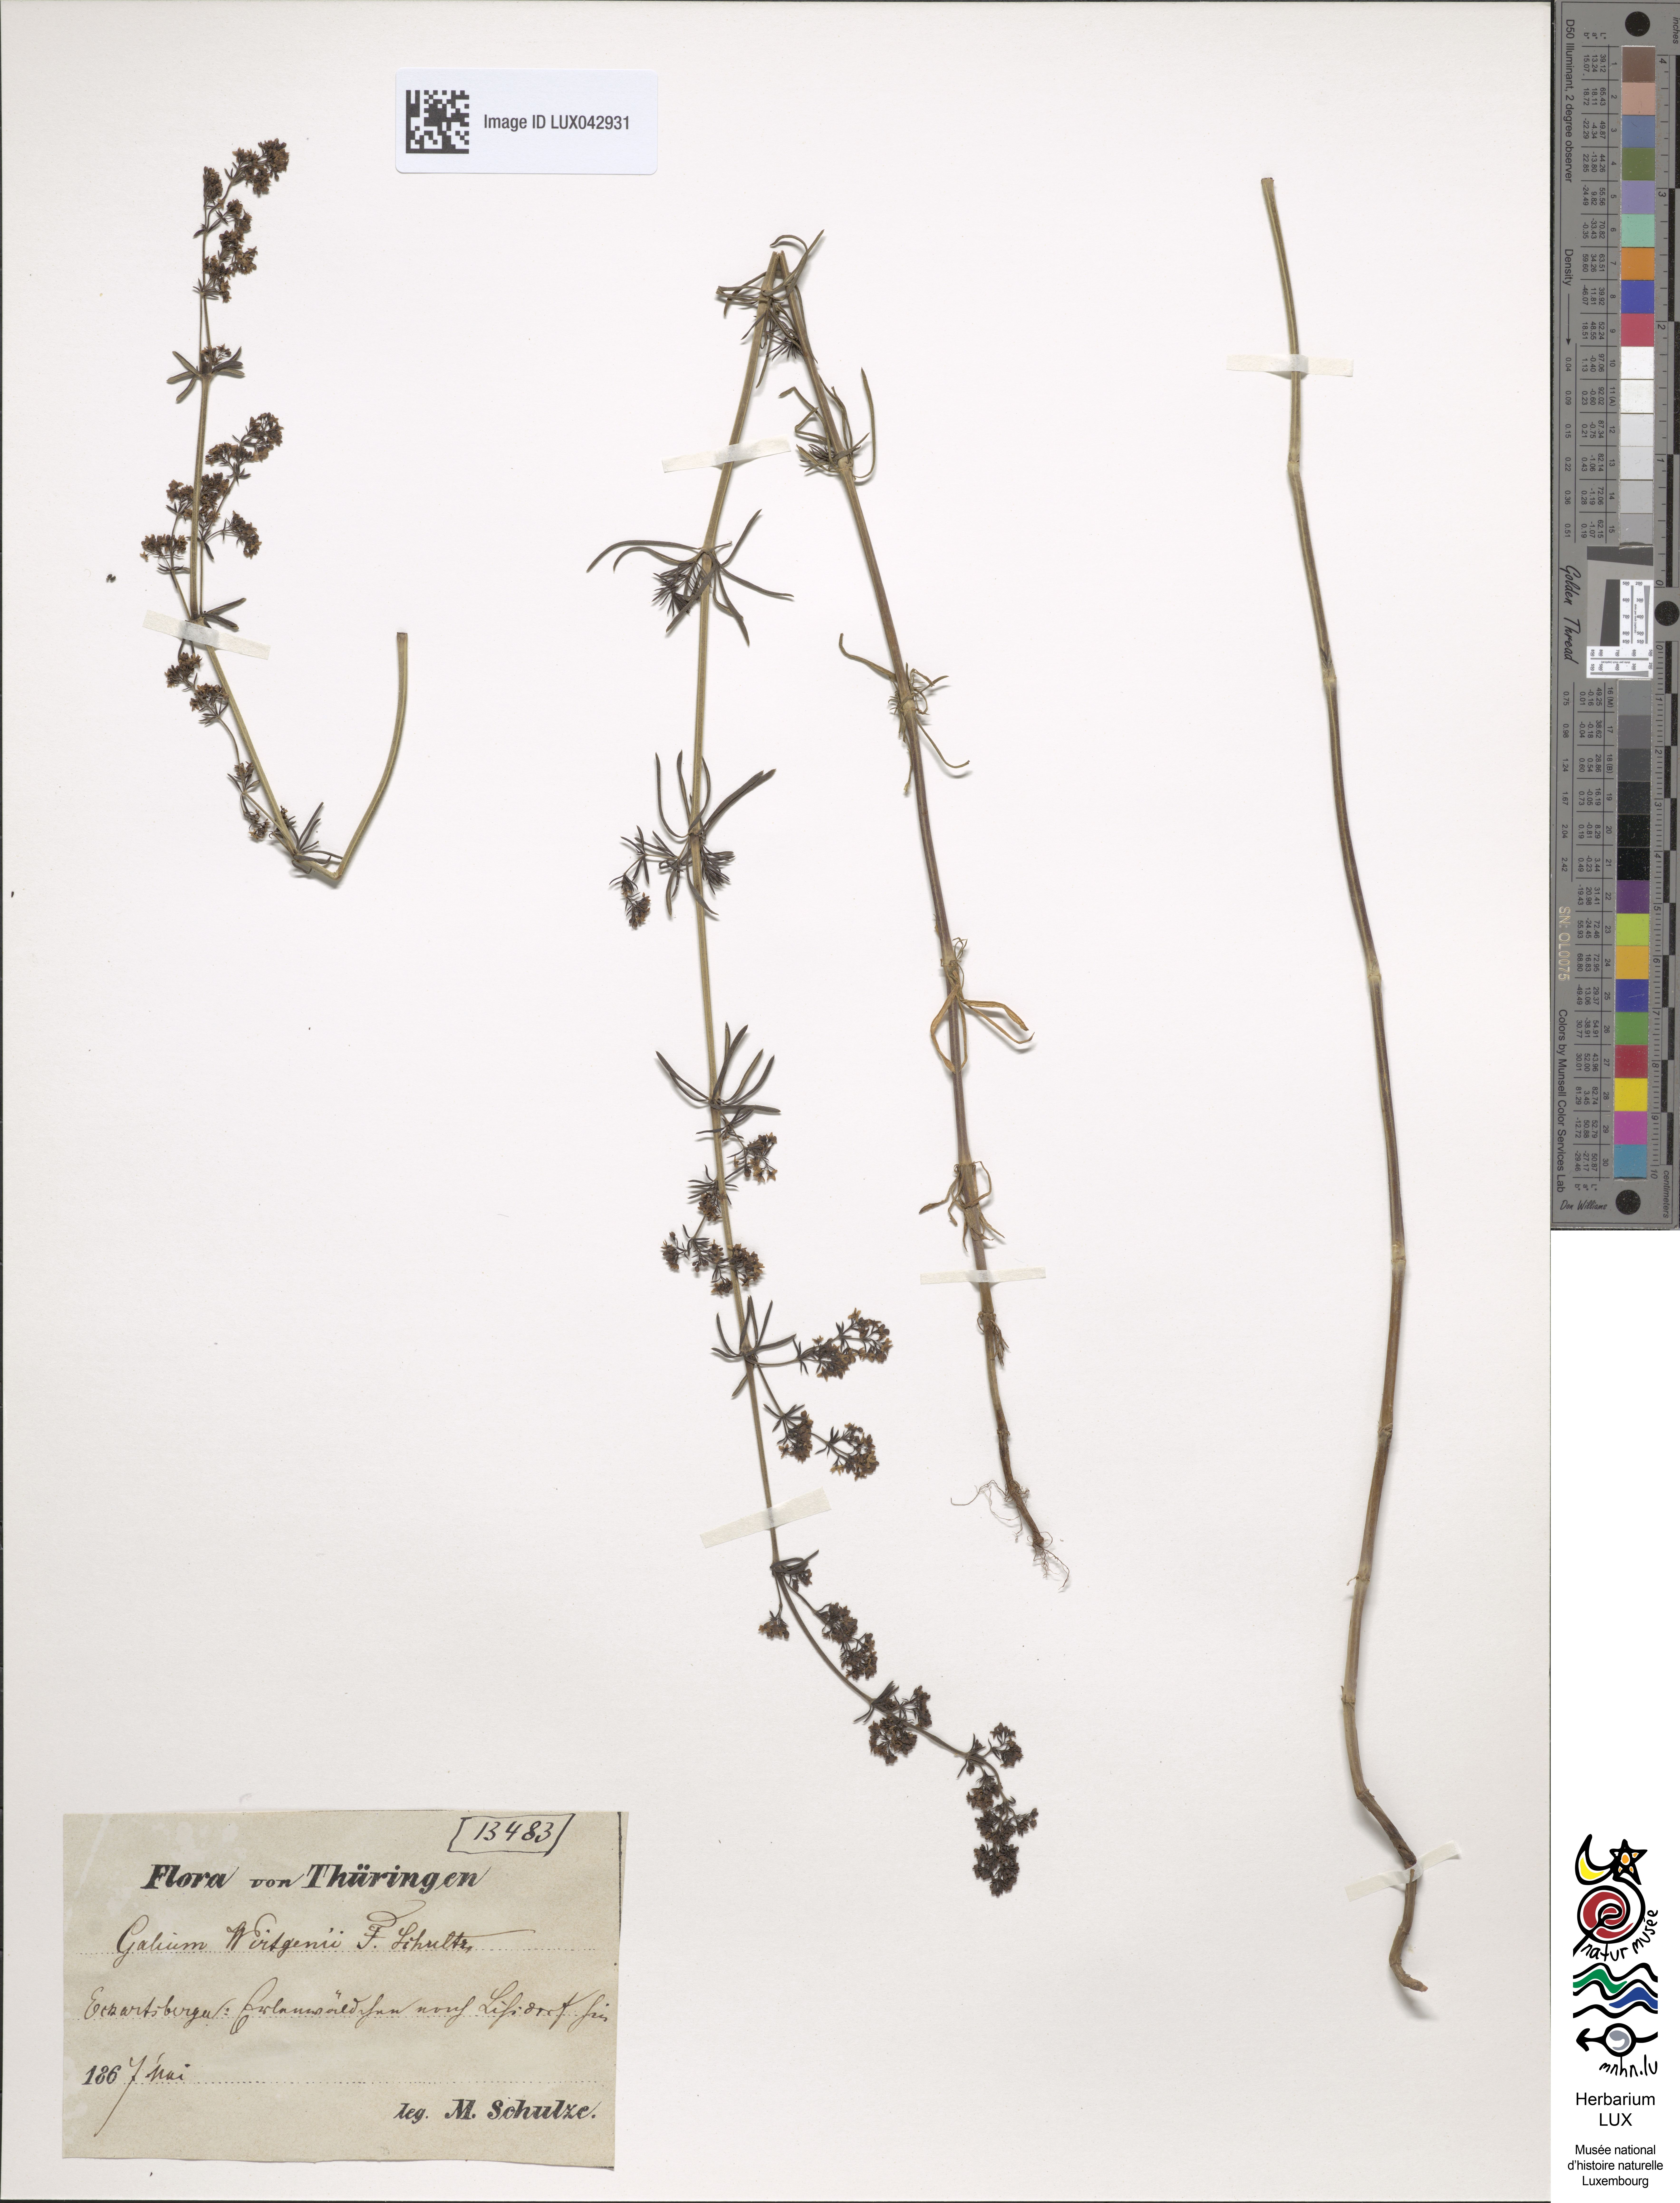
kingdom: Plantae
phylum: Tracheophyta
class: Magnoliopsida
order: Gentianales
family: Rubiaceae
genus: Galium
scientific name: Galium verum
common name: Lady's bedstraw
